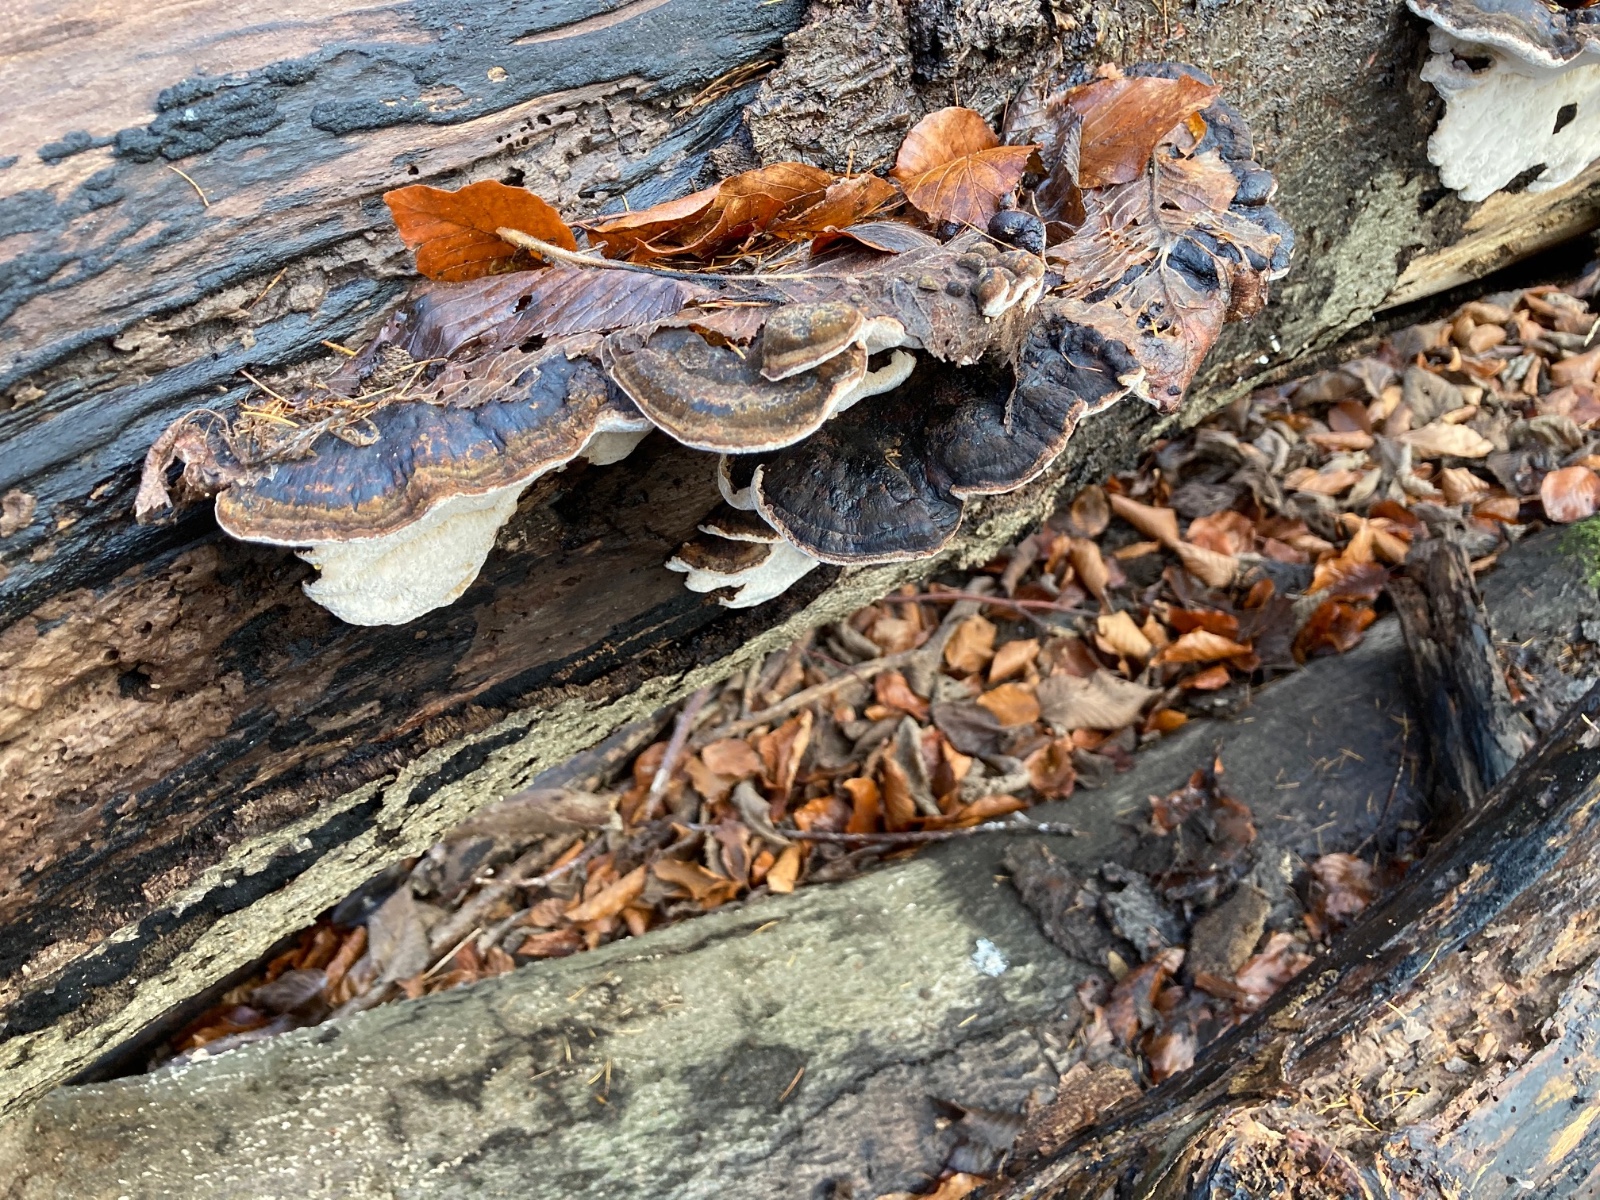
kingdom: Fungi
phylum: Basidiomycota
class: Agaricomycetes
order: Polyporales
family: Ischnodermataceae
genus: Ischnoderma
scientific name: Ischnoderma resinosum
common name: løv-tjæreporesvamp
